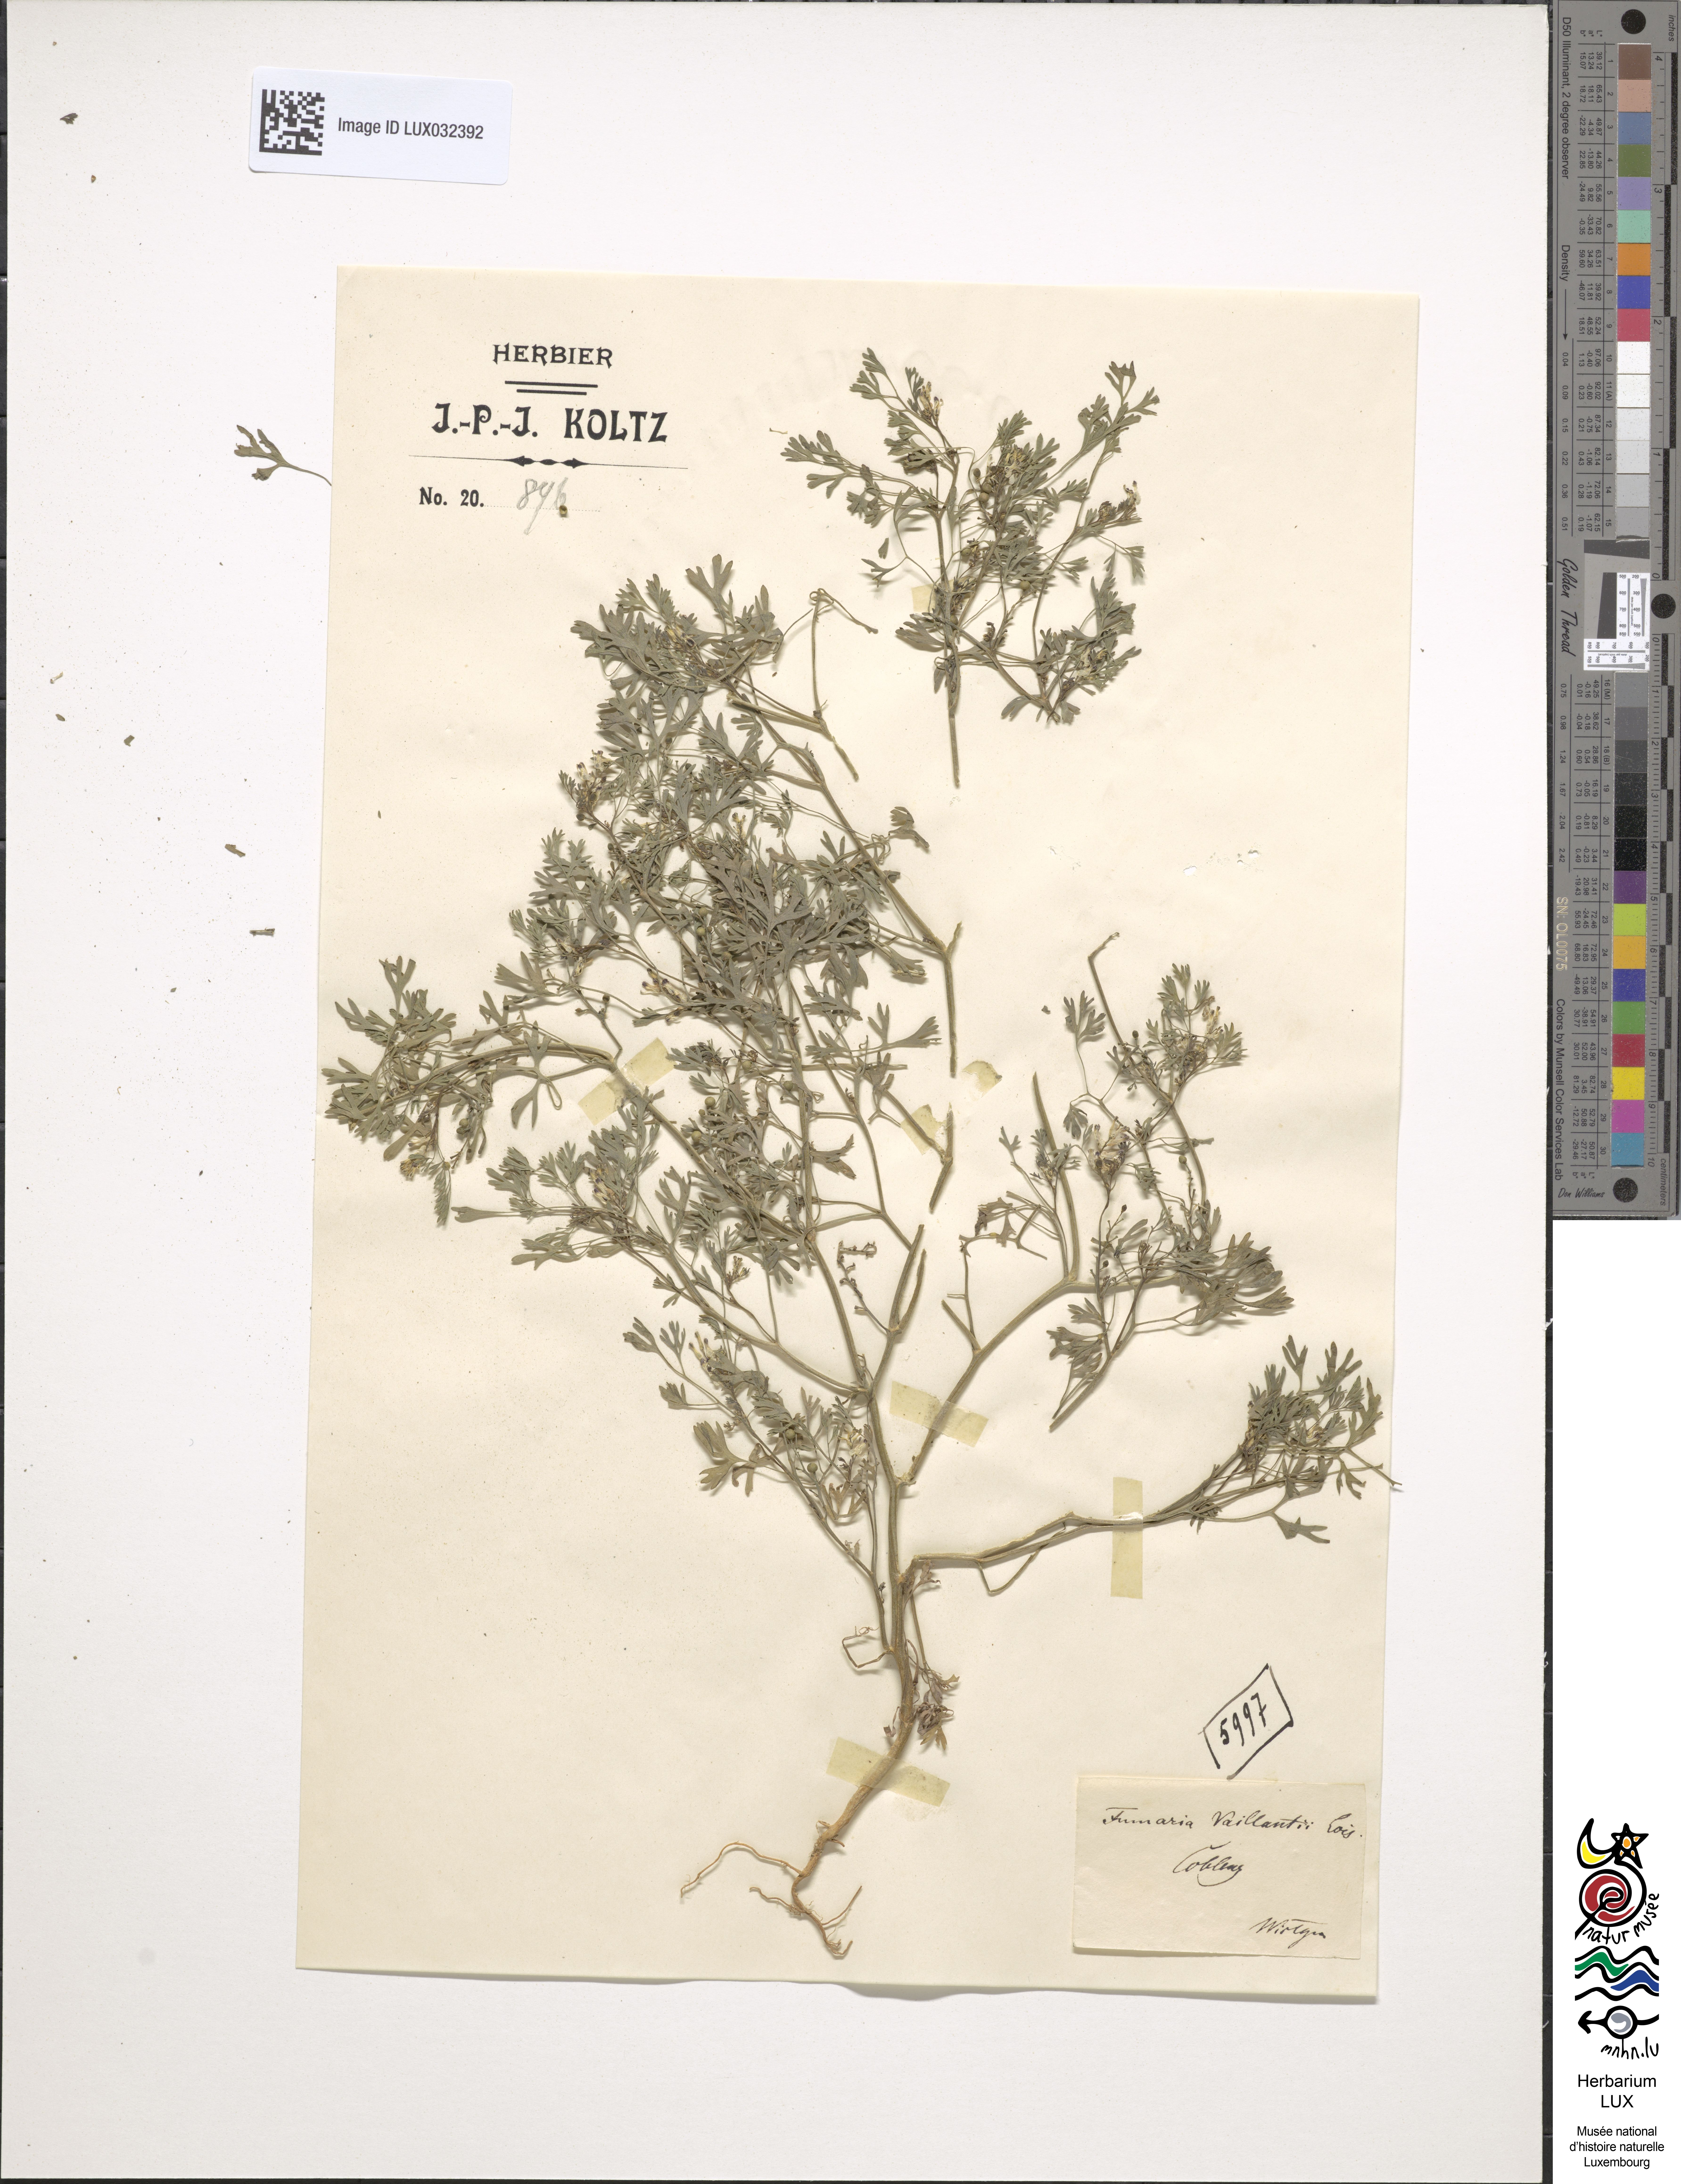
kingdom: Plantae
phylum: Tracheophyta
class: Magnoliopsida
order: Ranunculales
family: Papaveraceae
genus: Fumaria
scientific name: Fumaria vaillantii
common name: Few-flowered fumitory
